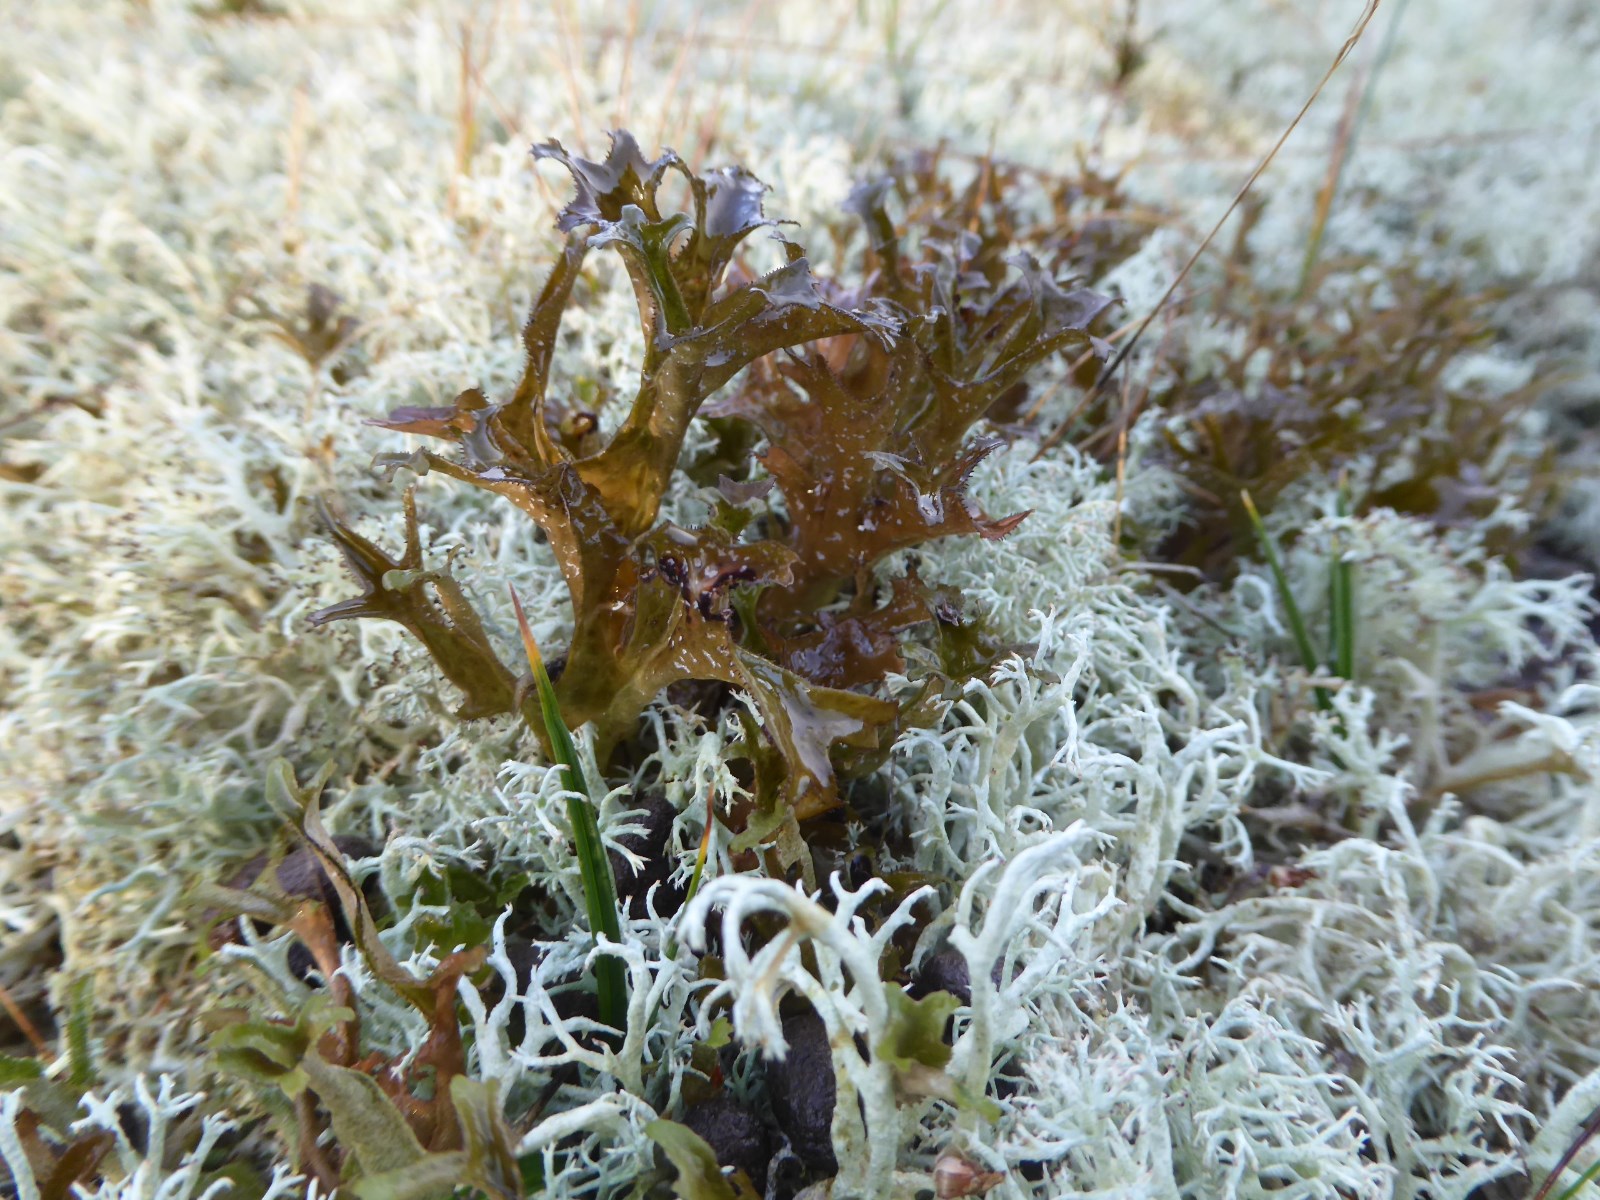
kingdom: Fungi
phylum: Ascomycota
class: Lecanoromycetes
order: Lecanorales
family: Parmeliaceae
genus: Cetraria
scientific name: Cetraria islandica
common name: islandsk kruslav
